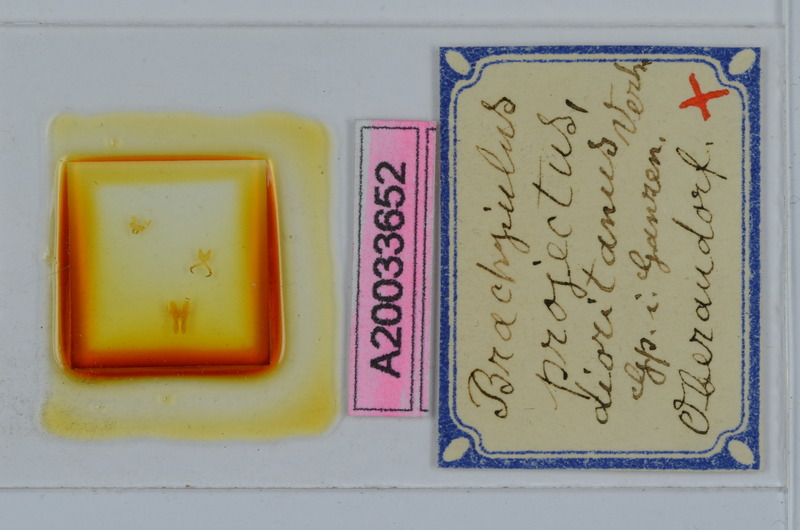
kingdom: Animalia
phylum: Arthropoda
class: Diplopoda
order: Julida
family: Julidae
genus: Megaphyllum
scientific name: Megaphyllum projectum
